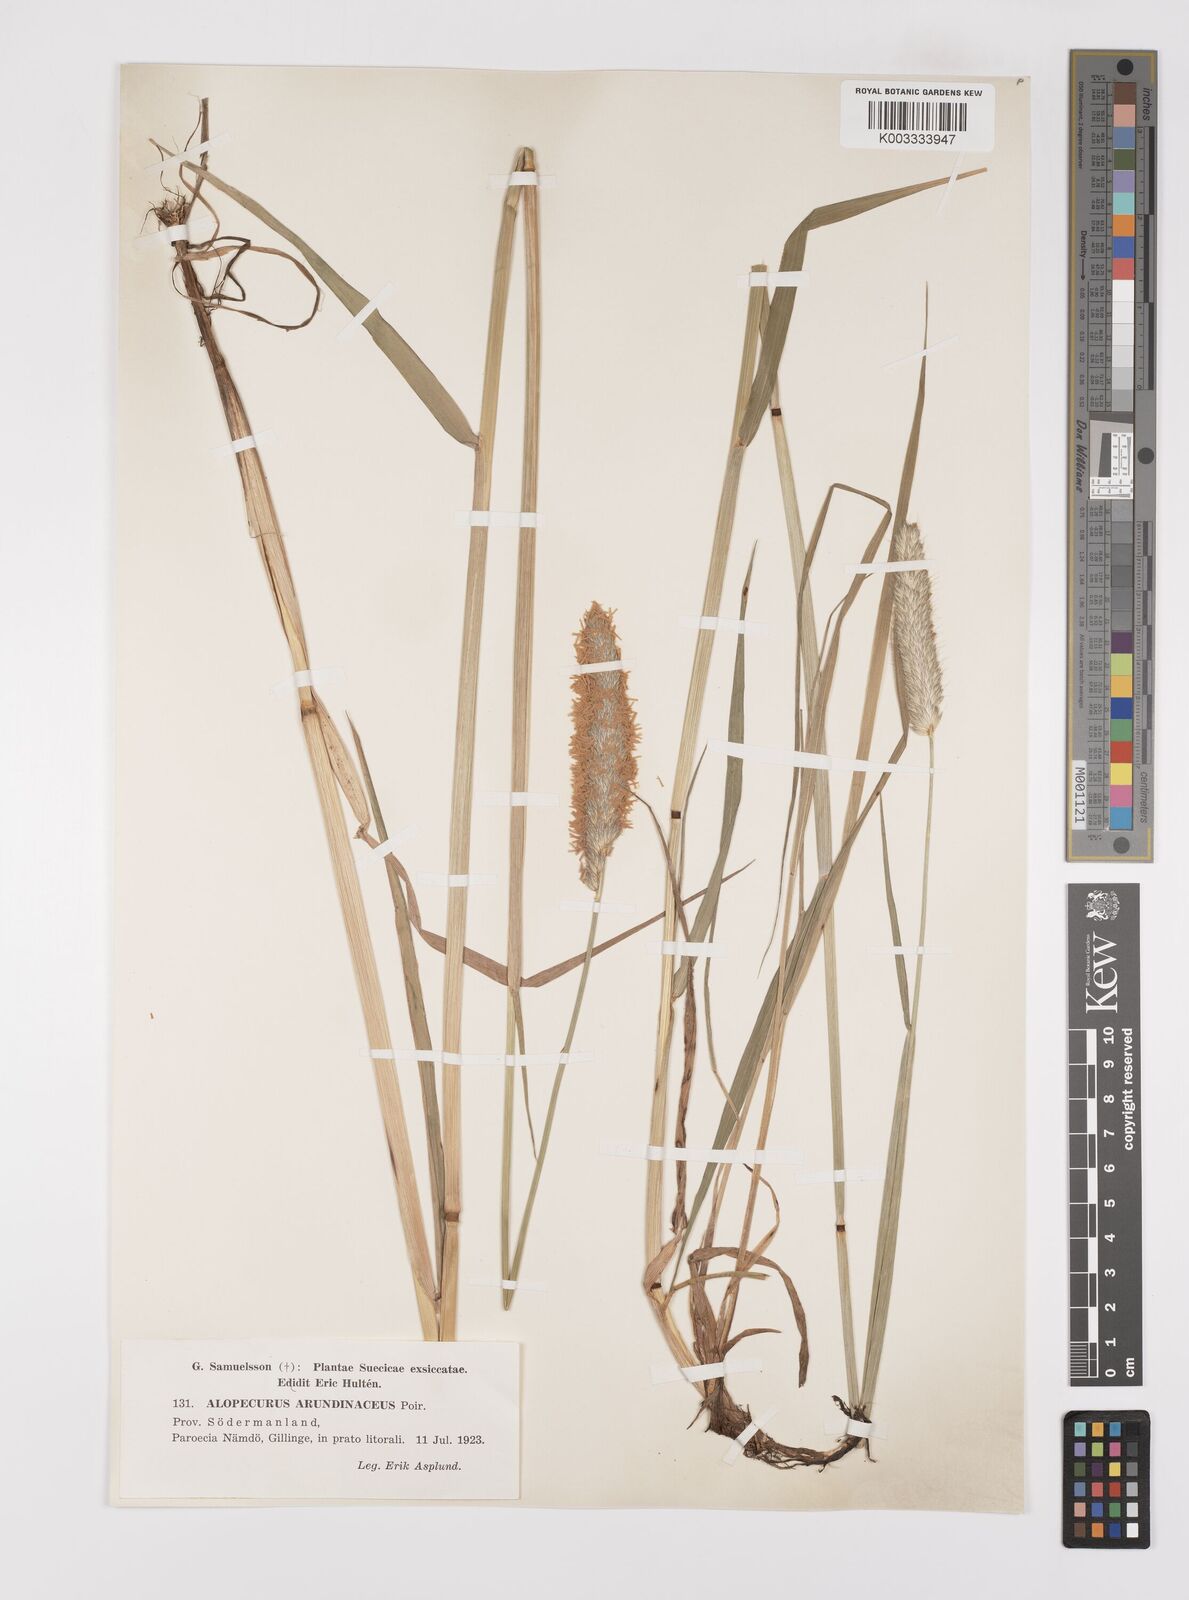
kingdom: Plantae
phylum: Tracheophyta
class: Liliopsida
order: Poales
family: Poaceae
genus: Alopecurus
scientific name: Alopecurus arundinaceus
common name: Creeping meadow foxtail
